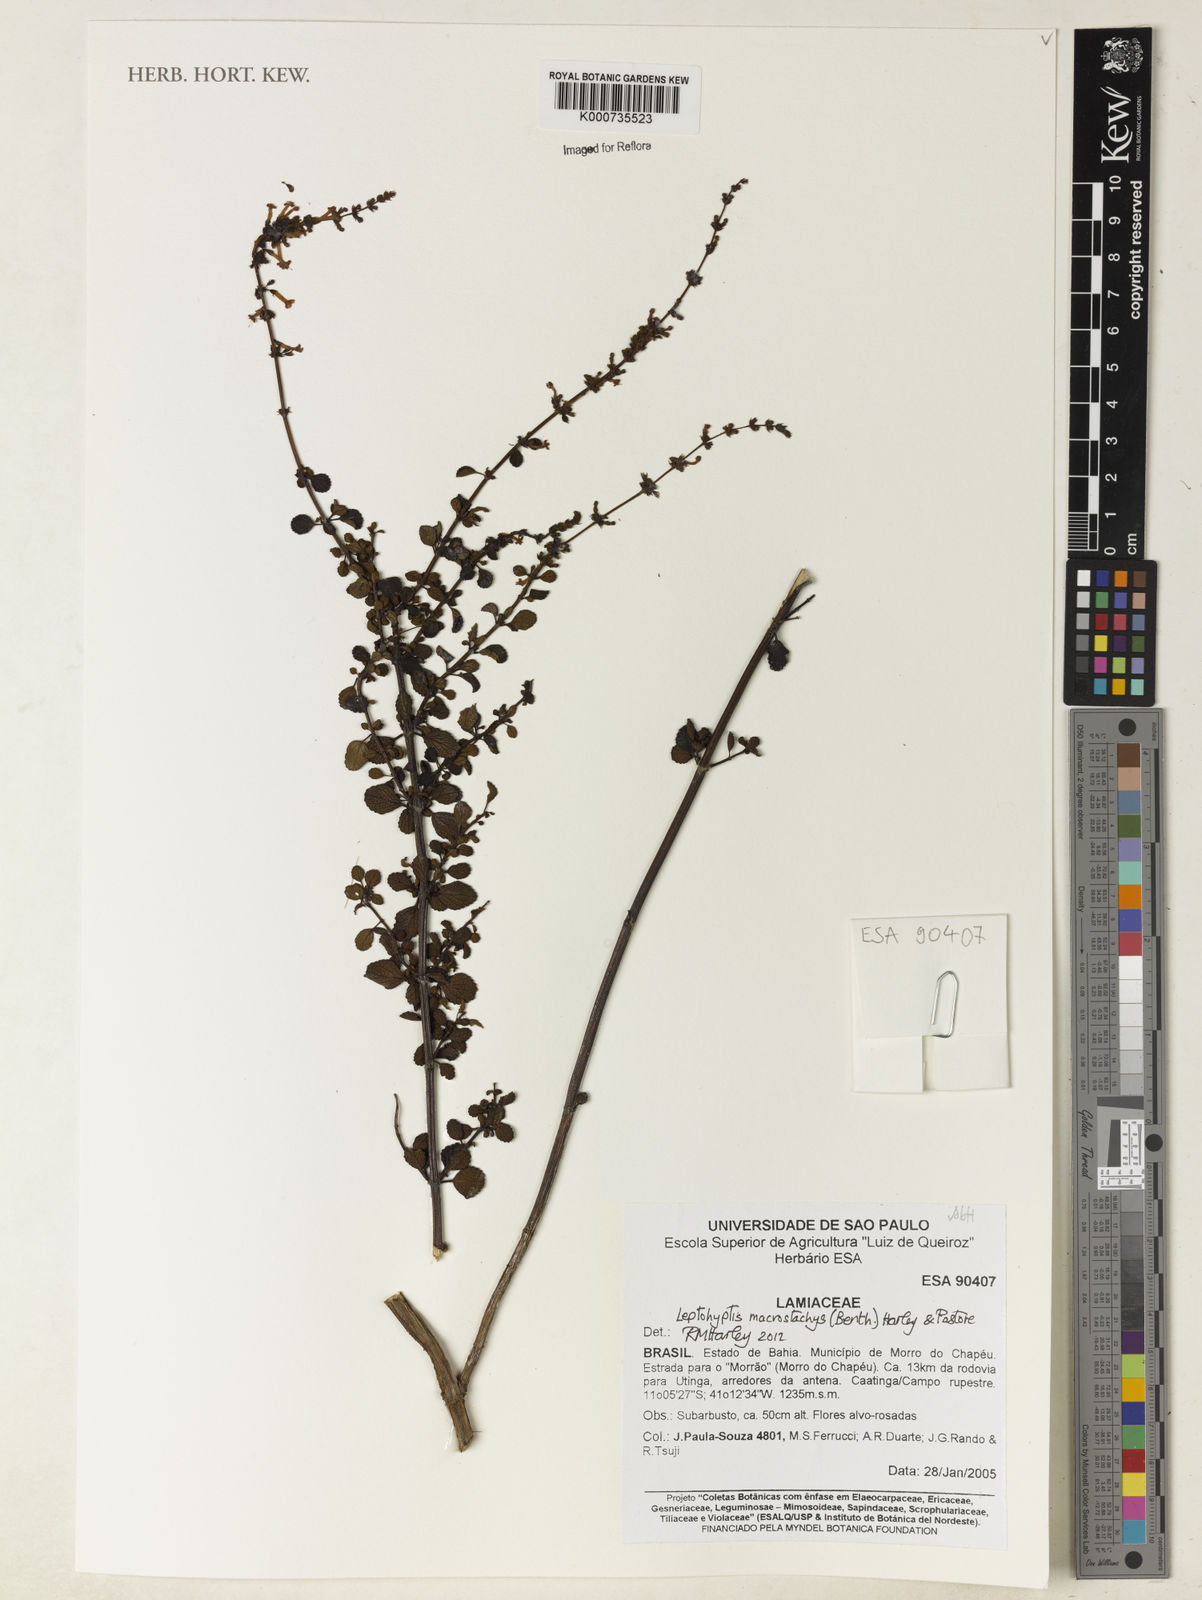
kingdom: Plantae
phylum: Tracheophyta
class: Magnoliopsida
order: Lamiales
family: Lamiaceae
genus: Leptohyptis
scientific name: Leptohyptis macrostachys
